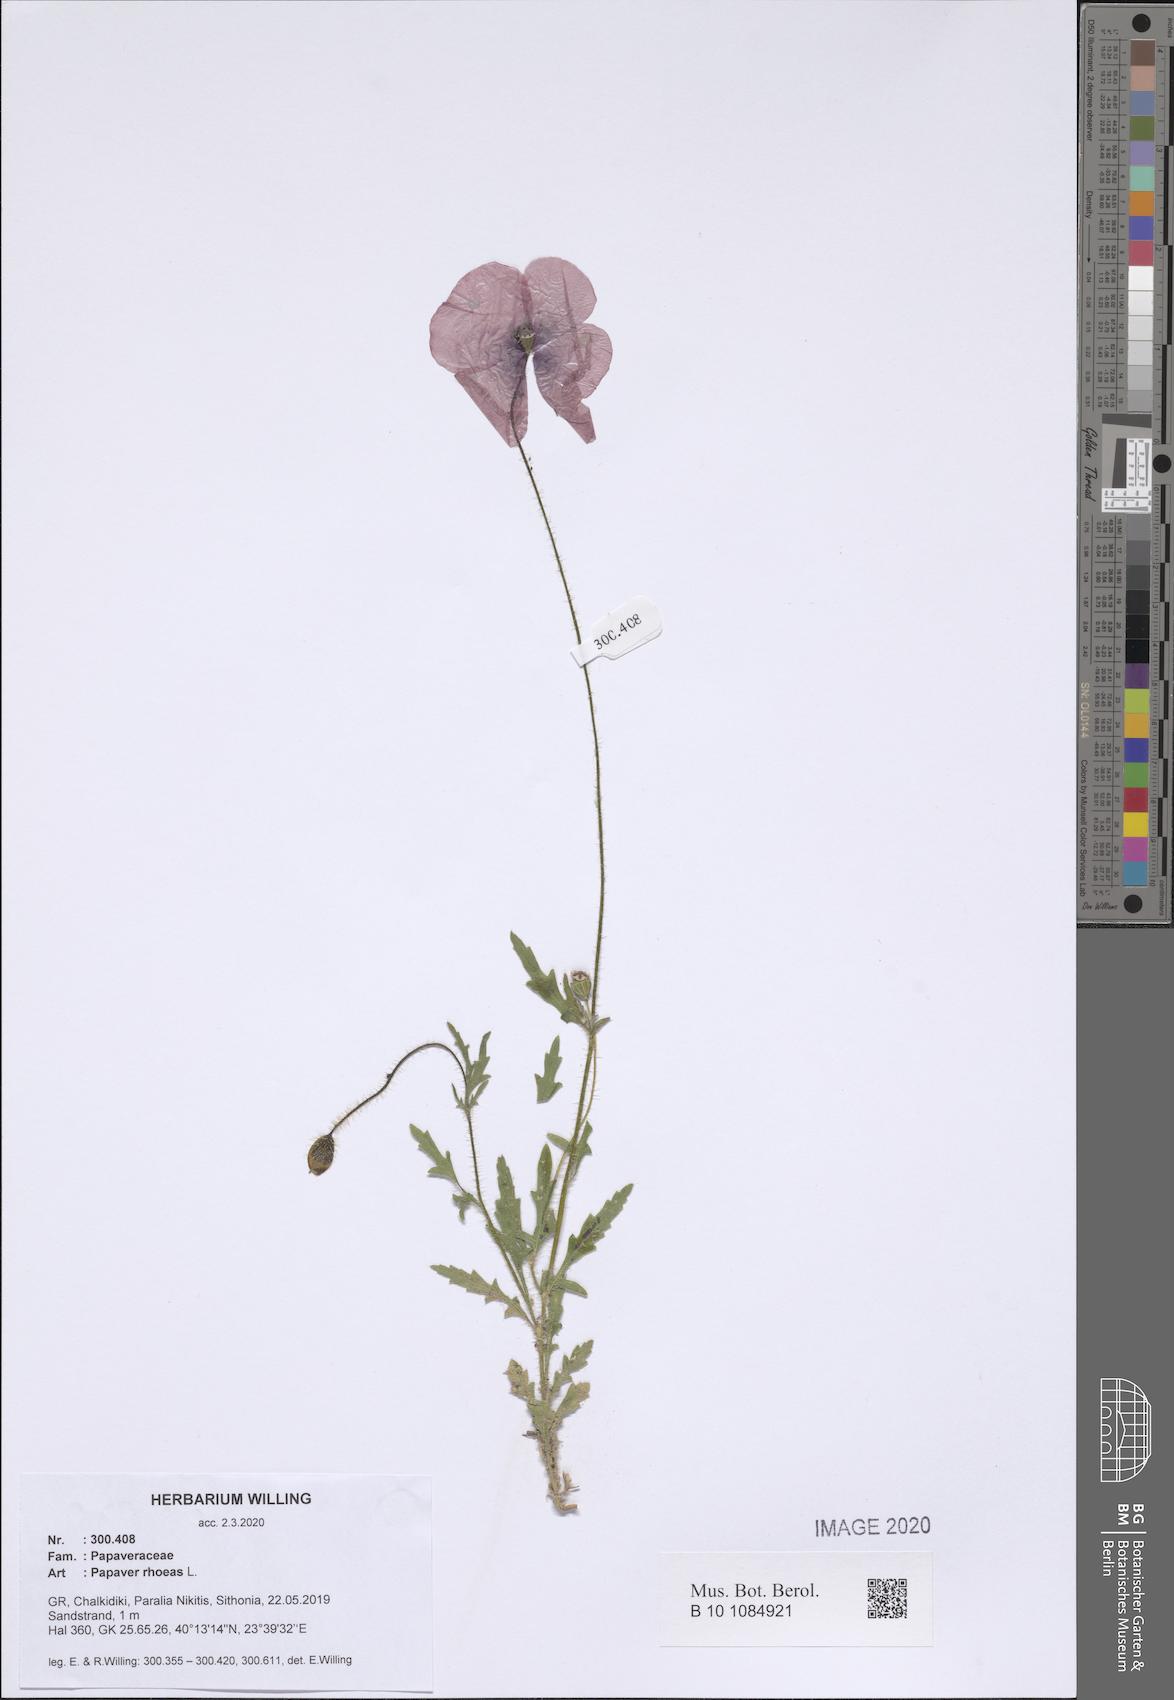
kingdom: Plantae
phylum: Tracheophyta
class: Magnoliopsida
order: Ranunculales
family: Papaveraceae
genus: Papaver
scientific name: Papaver rhoeas
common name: Corn poppy
